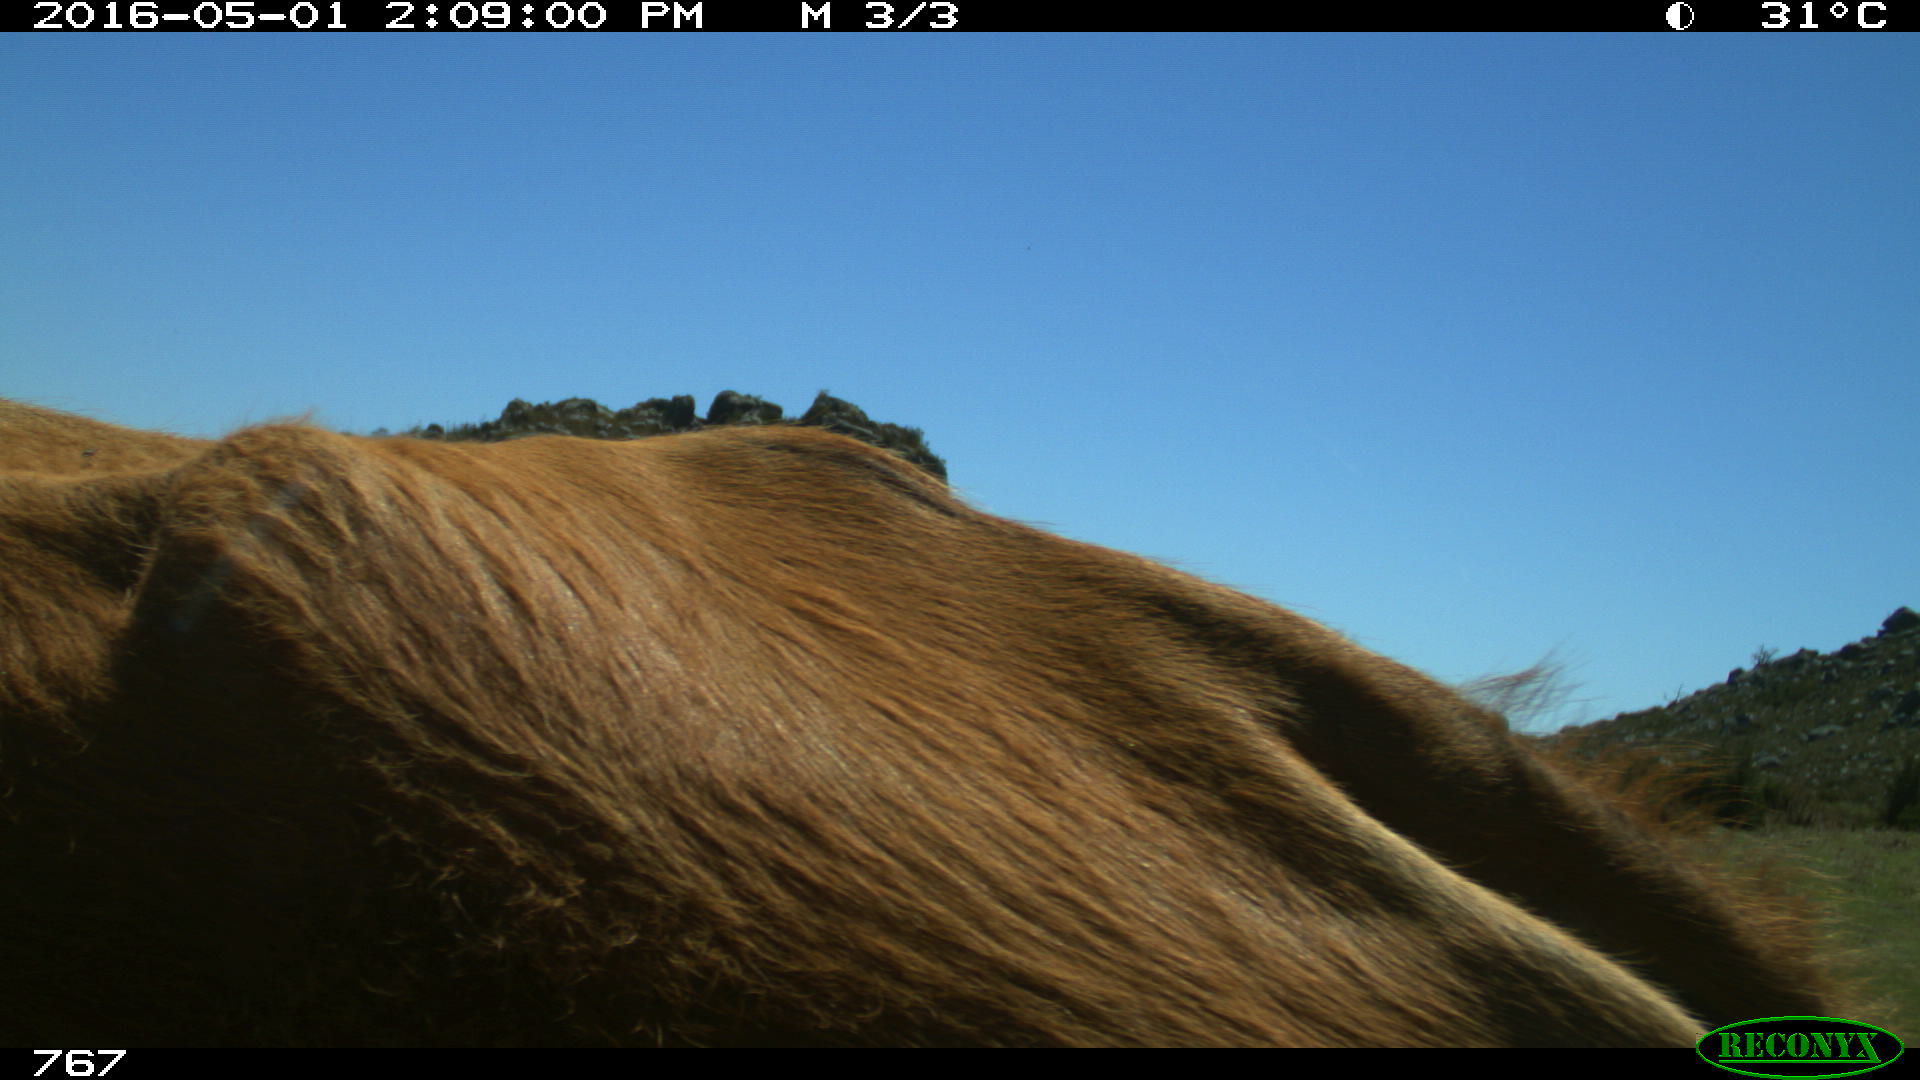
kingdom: Animalia
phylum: Chordata
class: Mammalia
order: Artiodactyla
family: Bovidae
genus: Bos
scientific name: Bos taurus
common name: Domesticated cattle
